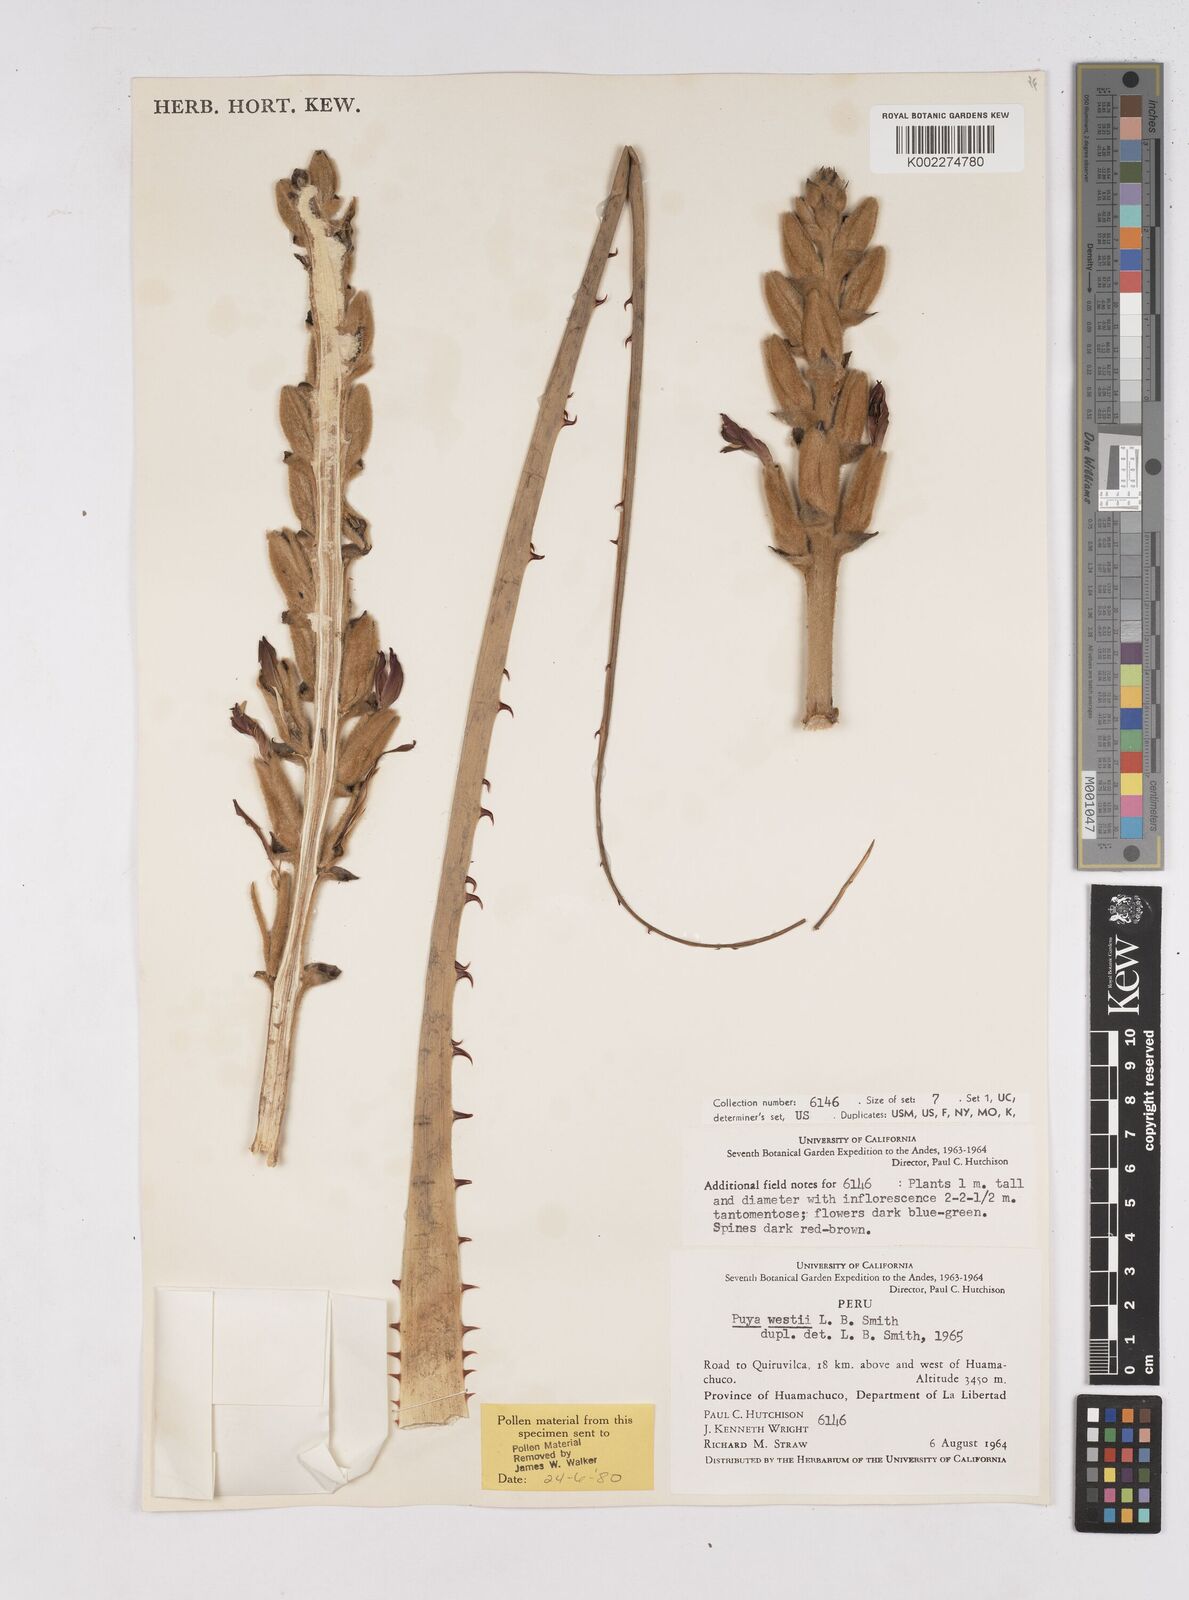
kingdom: Plantae
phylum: Tracheophyta
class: Liliopsida
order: Poales
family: Bromeliaceae
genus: Puya
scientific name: Puya westii
